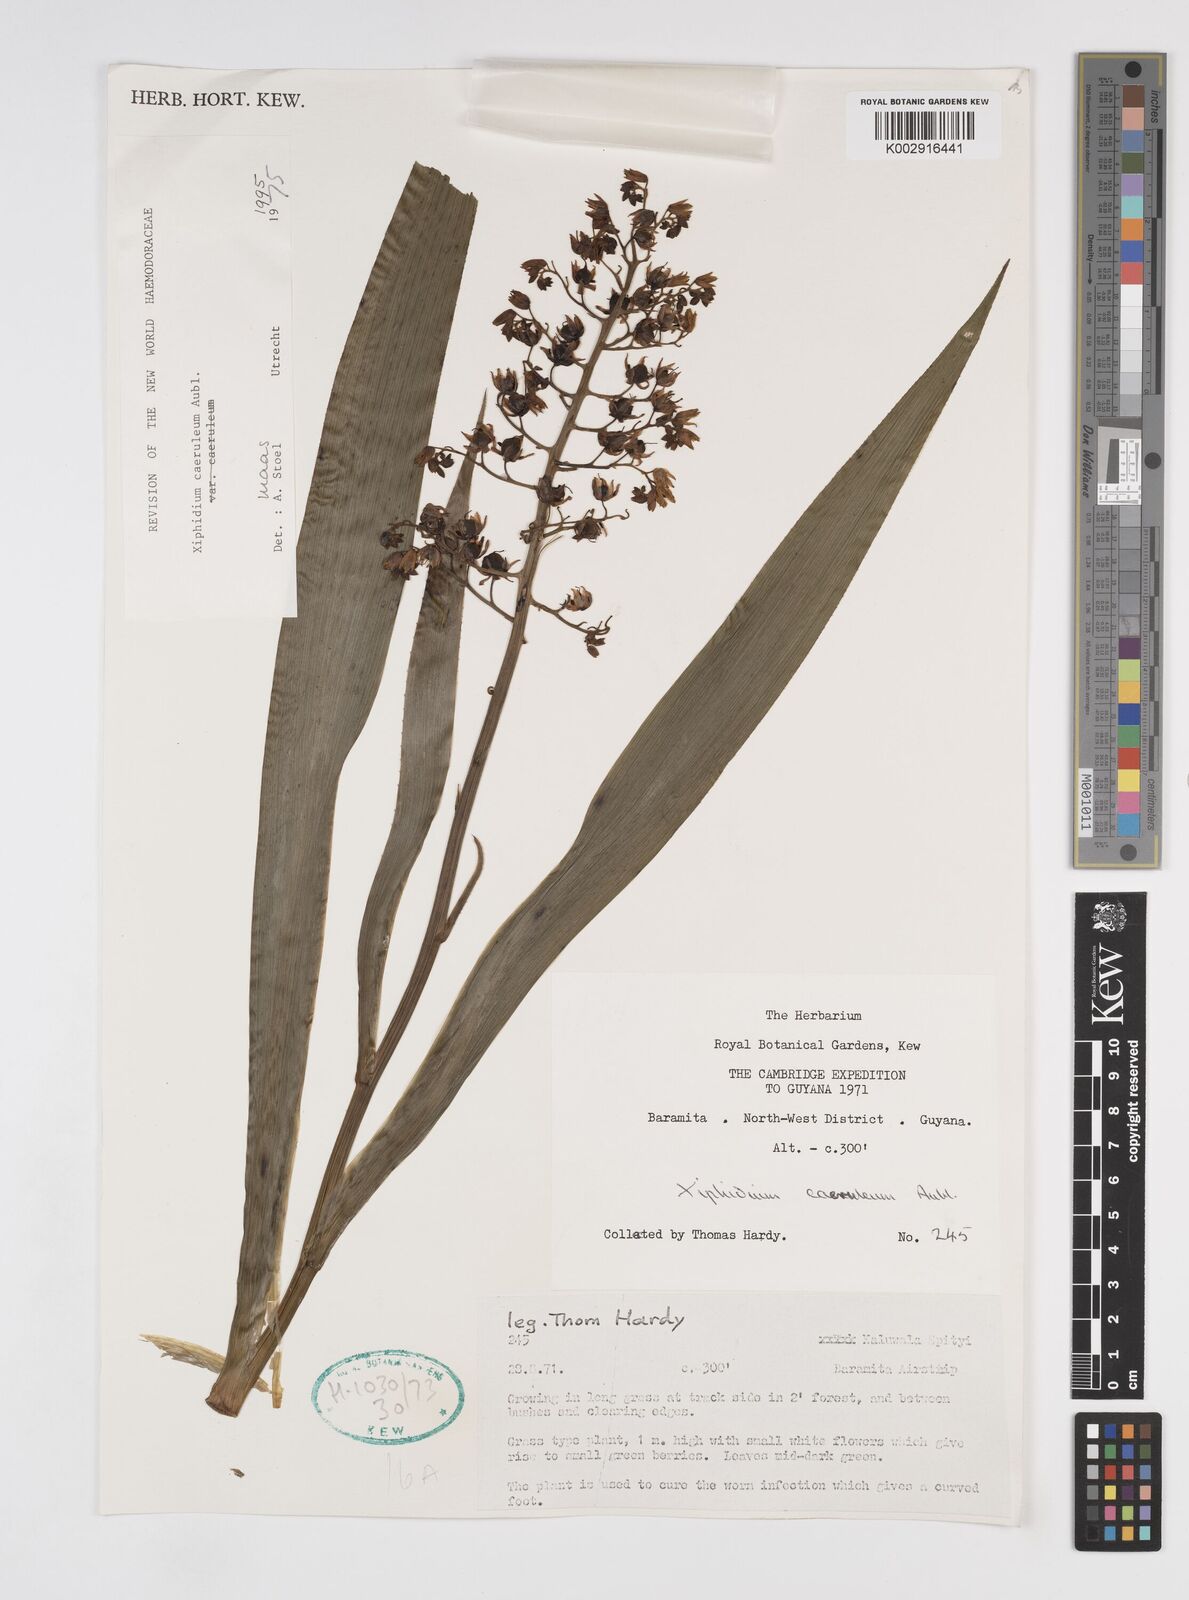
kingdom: Plantae
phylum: Tracheophyta
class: Liliopsida
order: Commelinales
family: Haemodoraceae
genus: Xiphidium
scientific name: Xiphidium caeruleum
